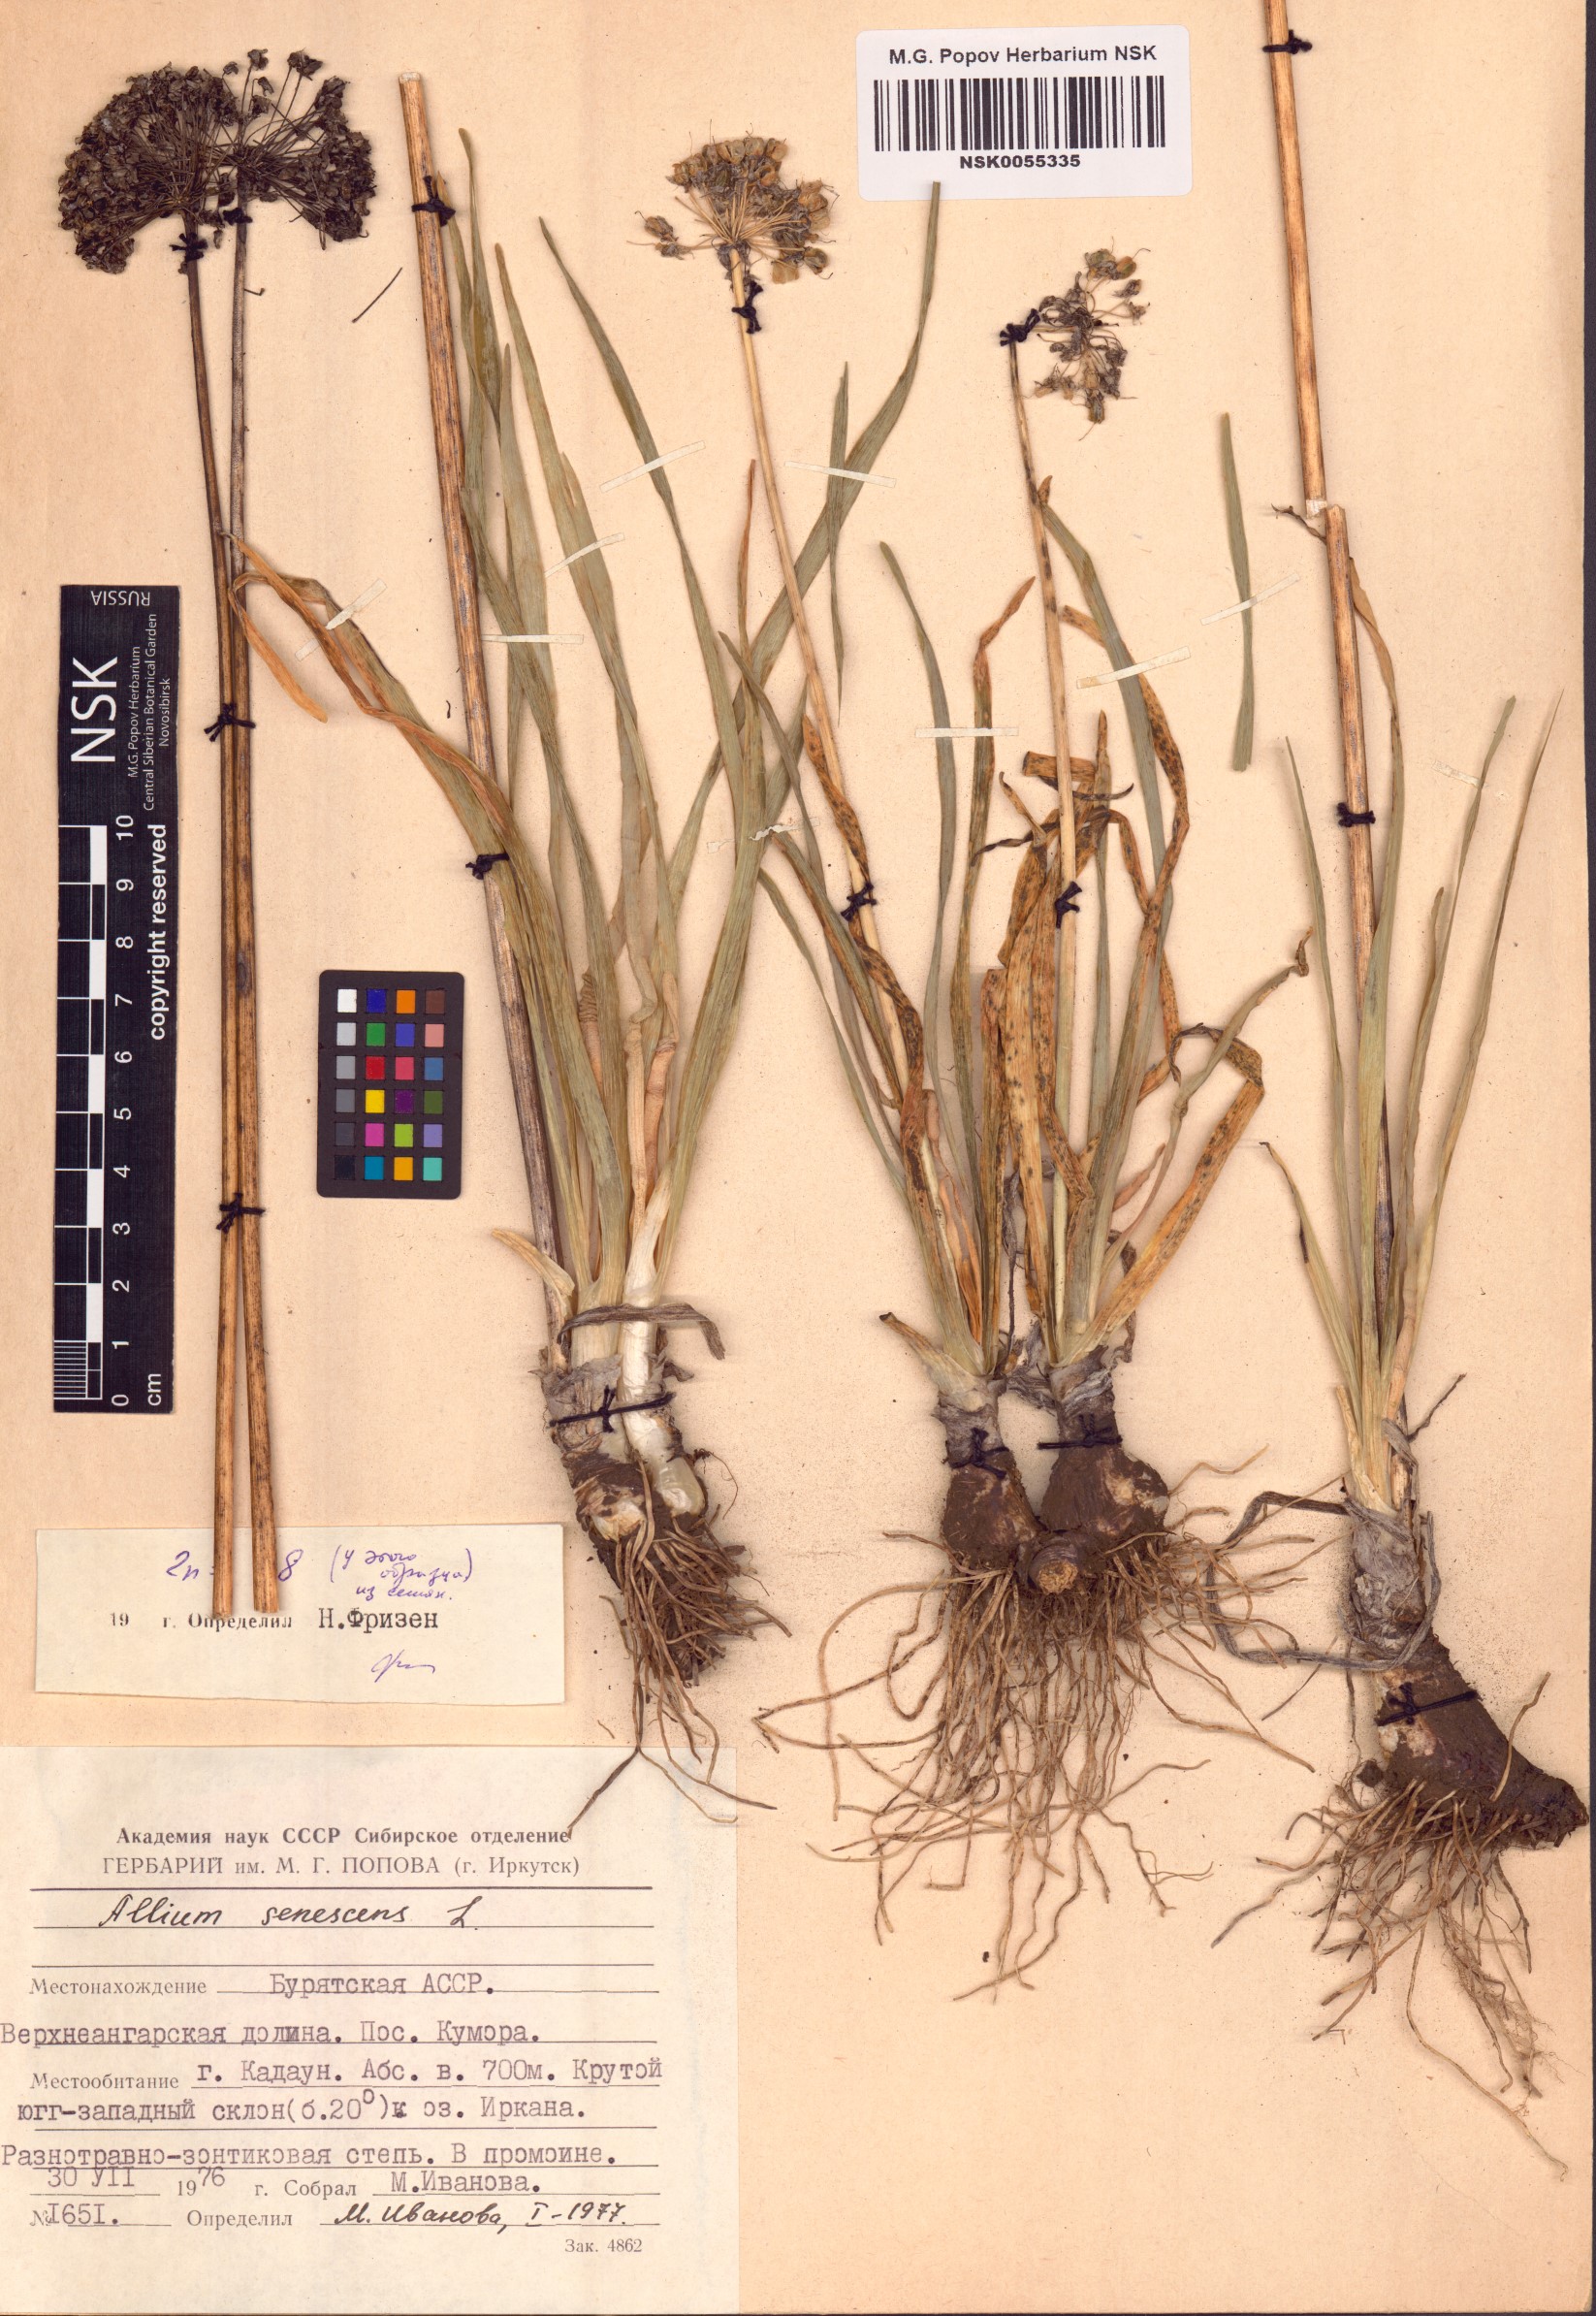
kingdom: Plantae
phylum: Tracheophyta
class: Liliopsida
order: Asparagales
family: Amaryllidaceae
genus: Allium
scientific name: Allium senescens
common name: German garlic
